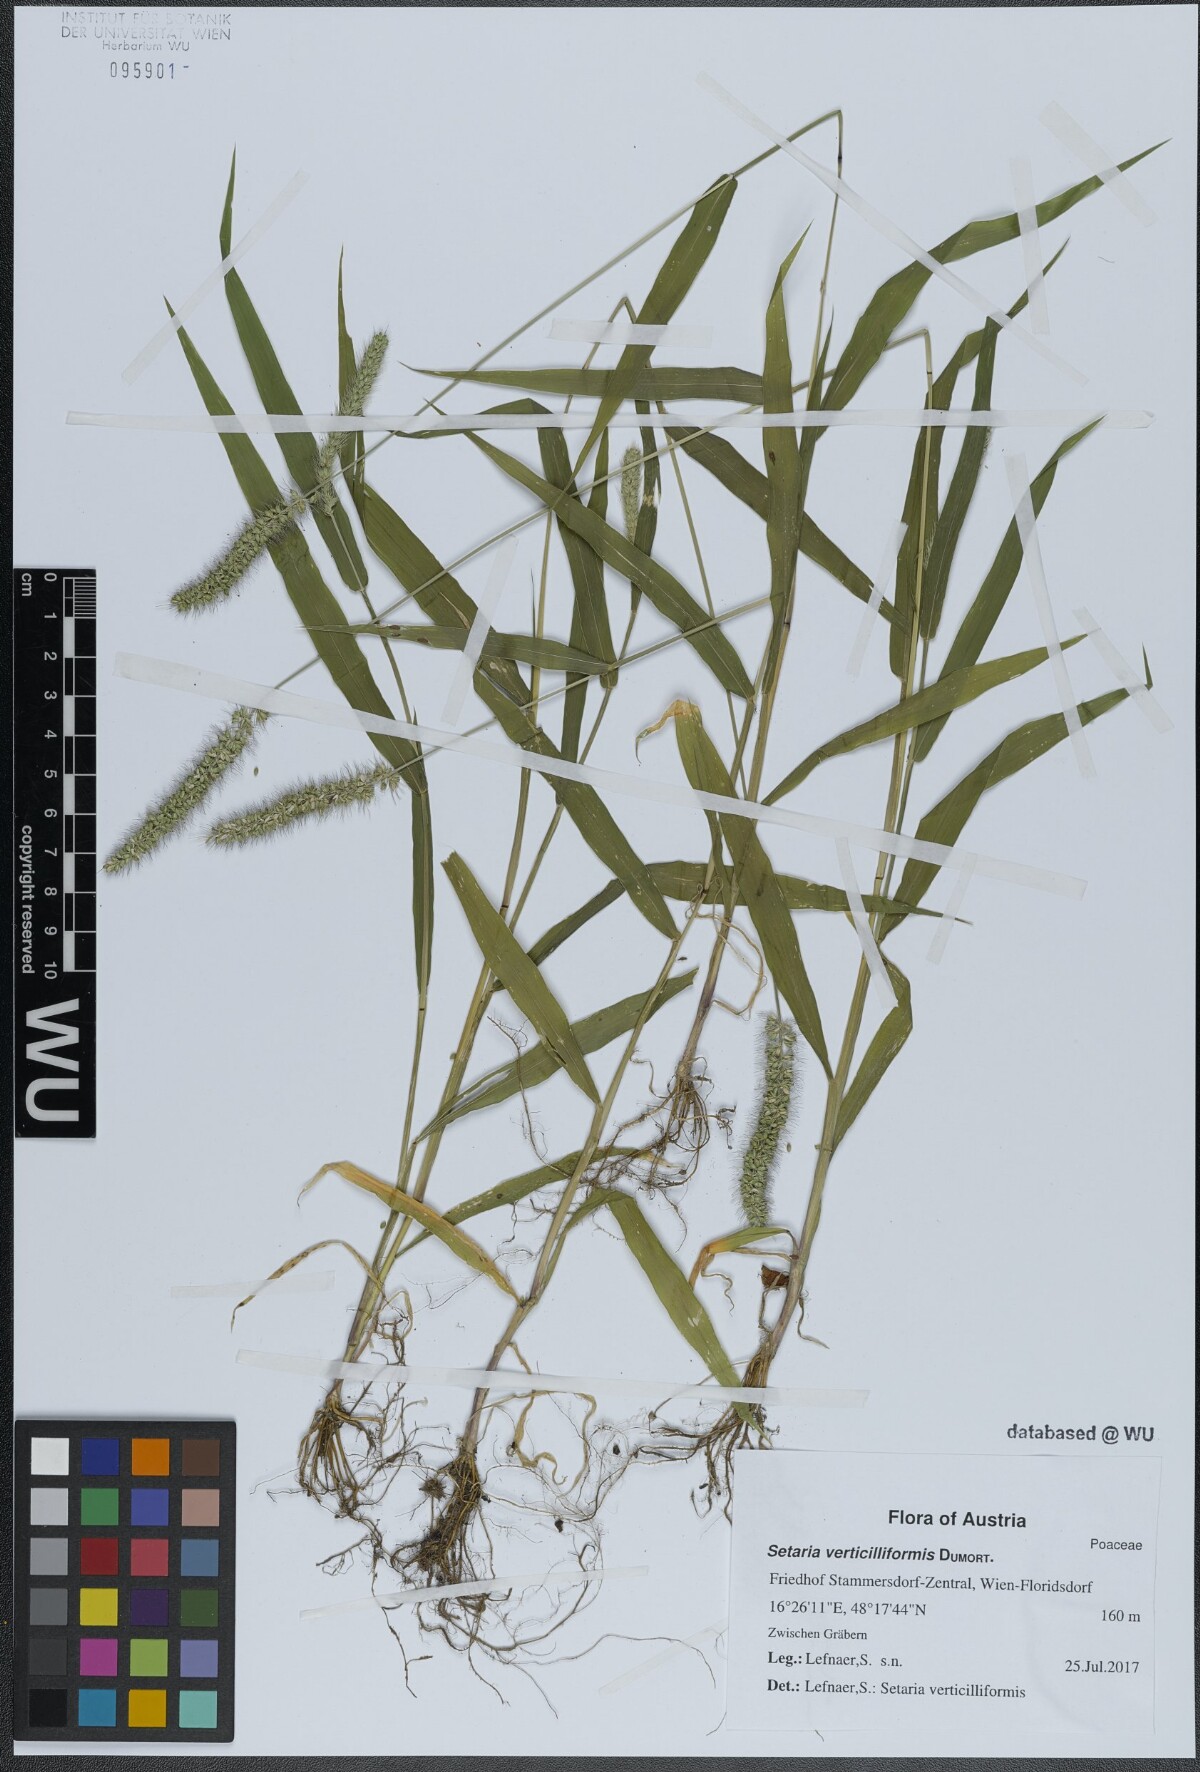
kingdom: Plantae
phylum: Tracheophyta
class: Liliopsida
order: Poales
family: Poaceae
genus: Setaria
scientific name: Setaria verticillata
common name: Hooked bristlegrass
